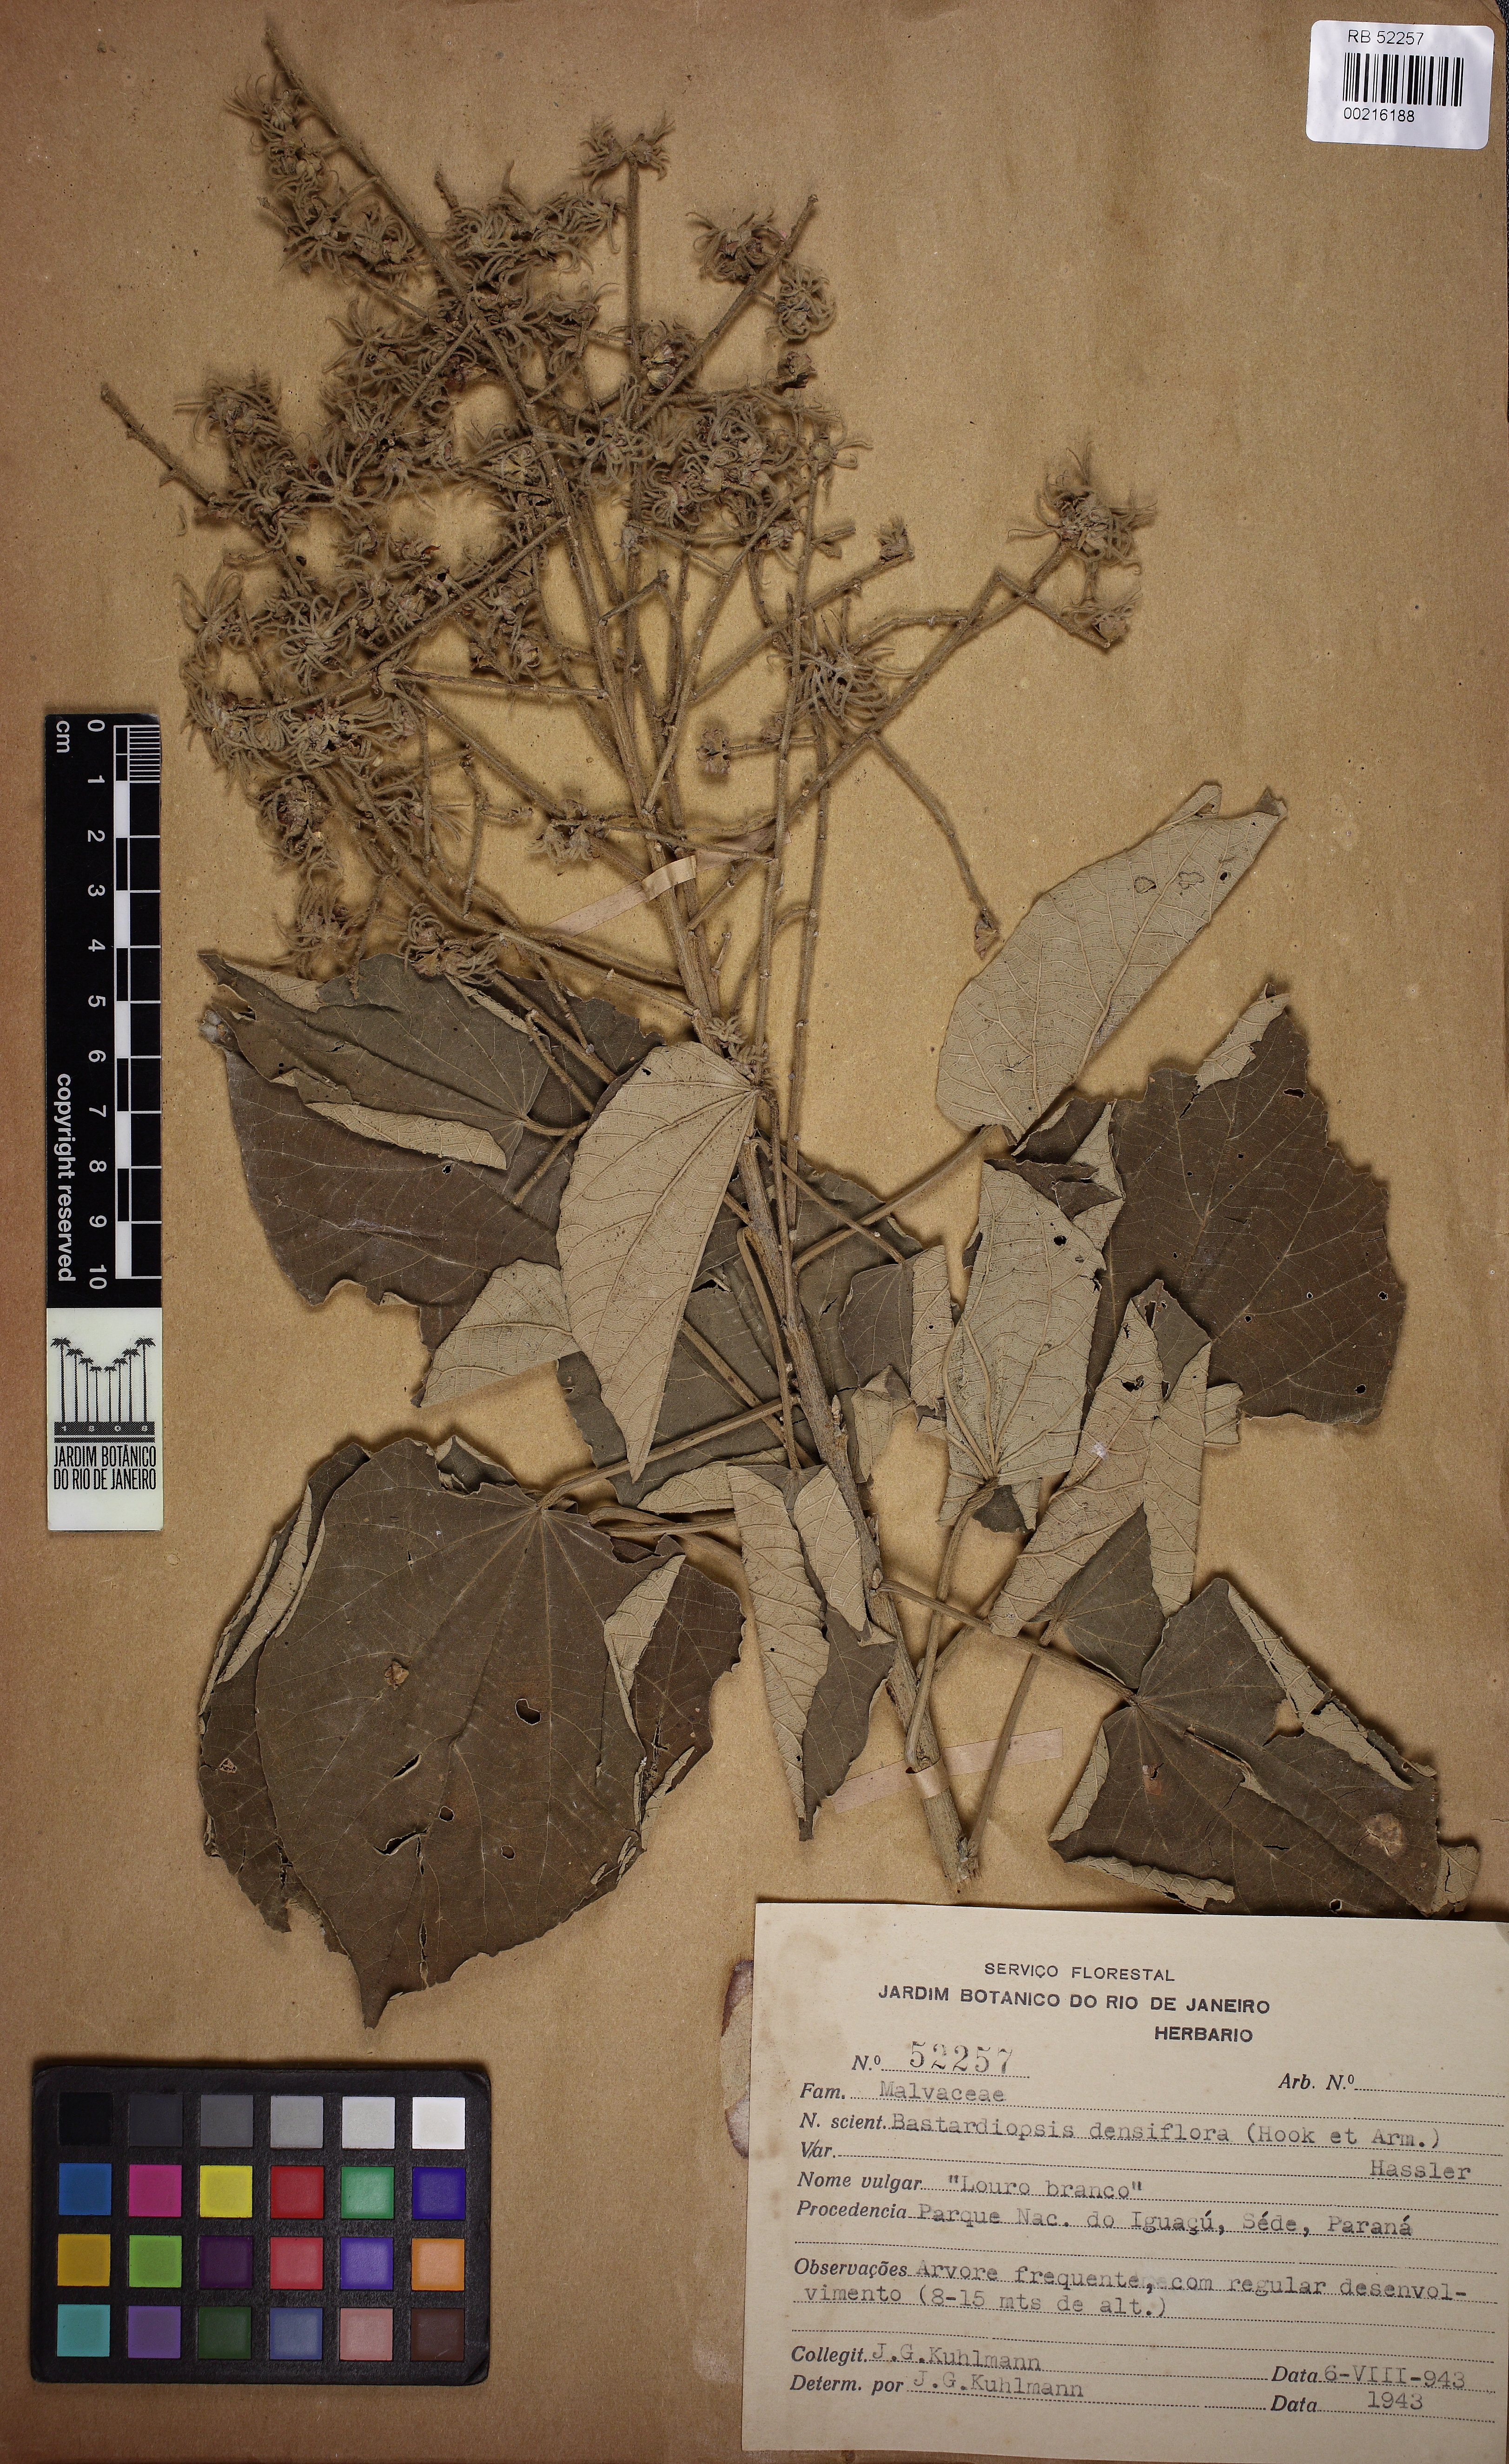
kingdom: Plantae
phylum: Tracheophyta
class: Magnoliopsida
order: Malvales
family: Malvaceae
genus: Bastardiopsis
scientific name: Bastardiopsis densiflora
